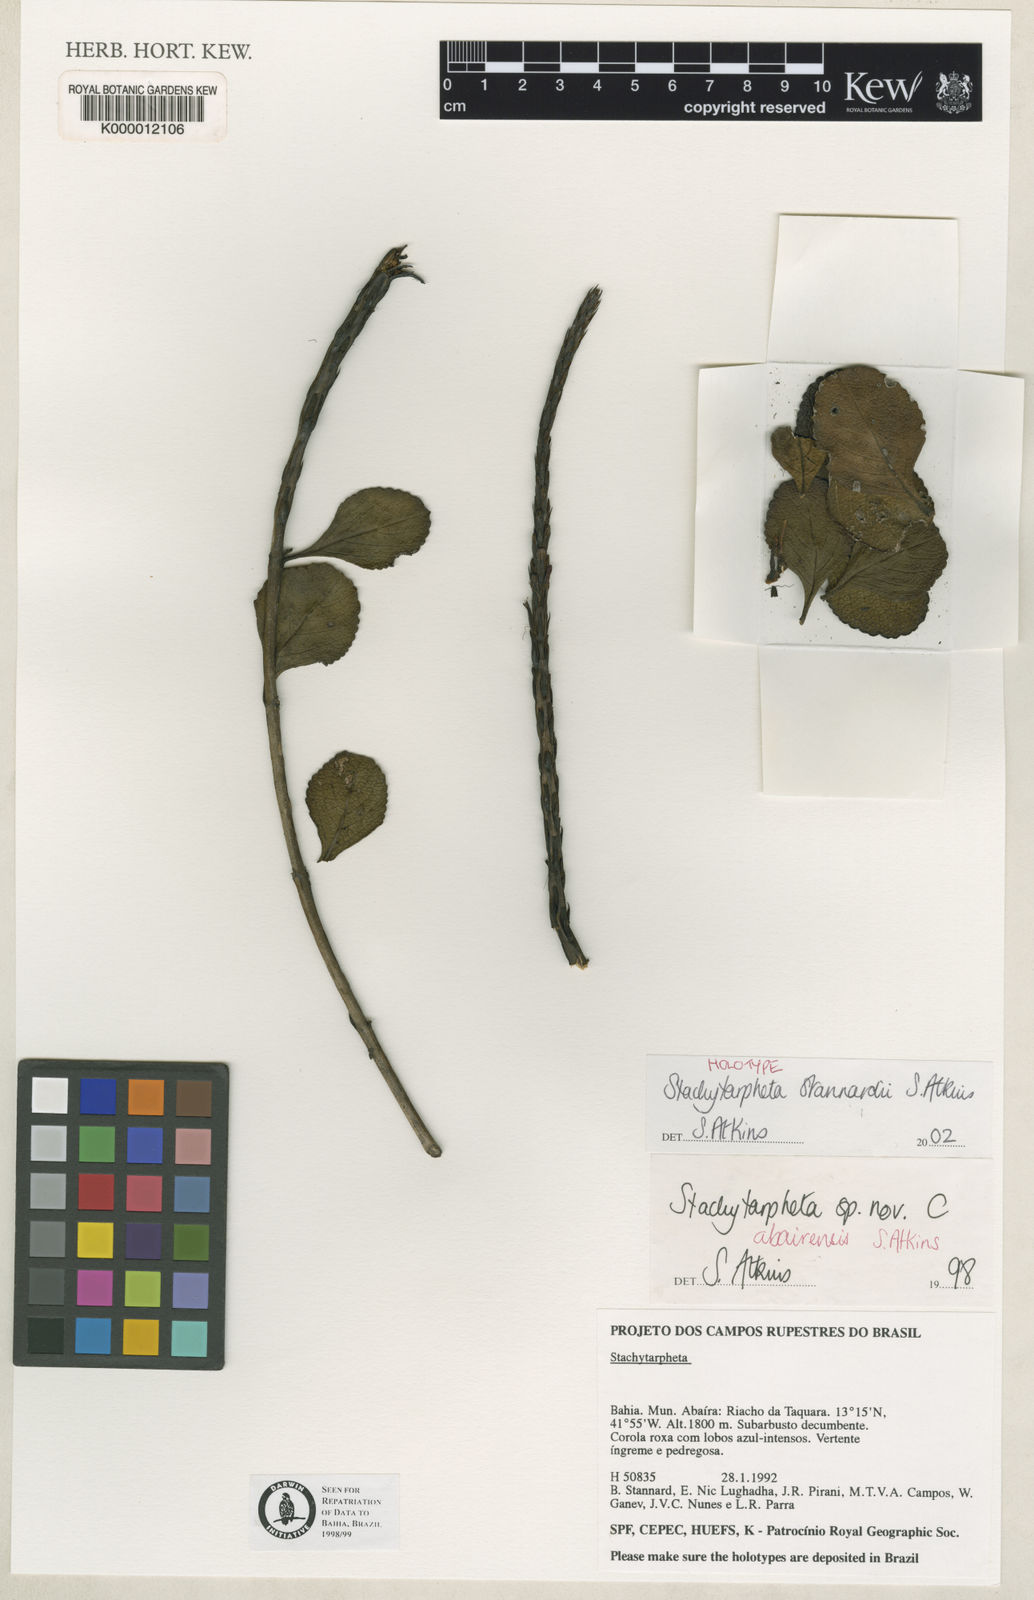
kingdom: Plantae
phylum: Tracheophyta
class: Magnoliopsida
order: Lamiales
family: Verbenaceae
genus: Stachytarpheta
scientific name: Stachytarpheta stannardii
